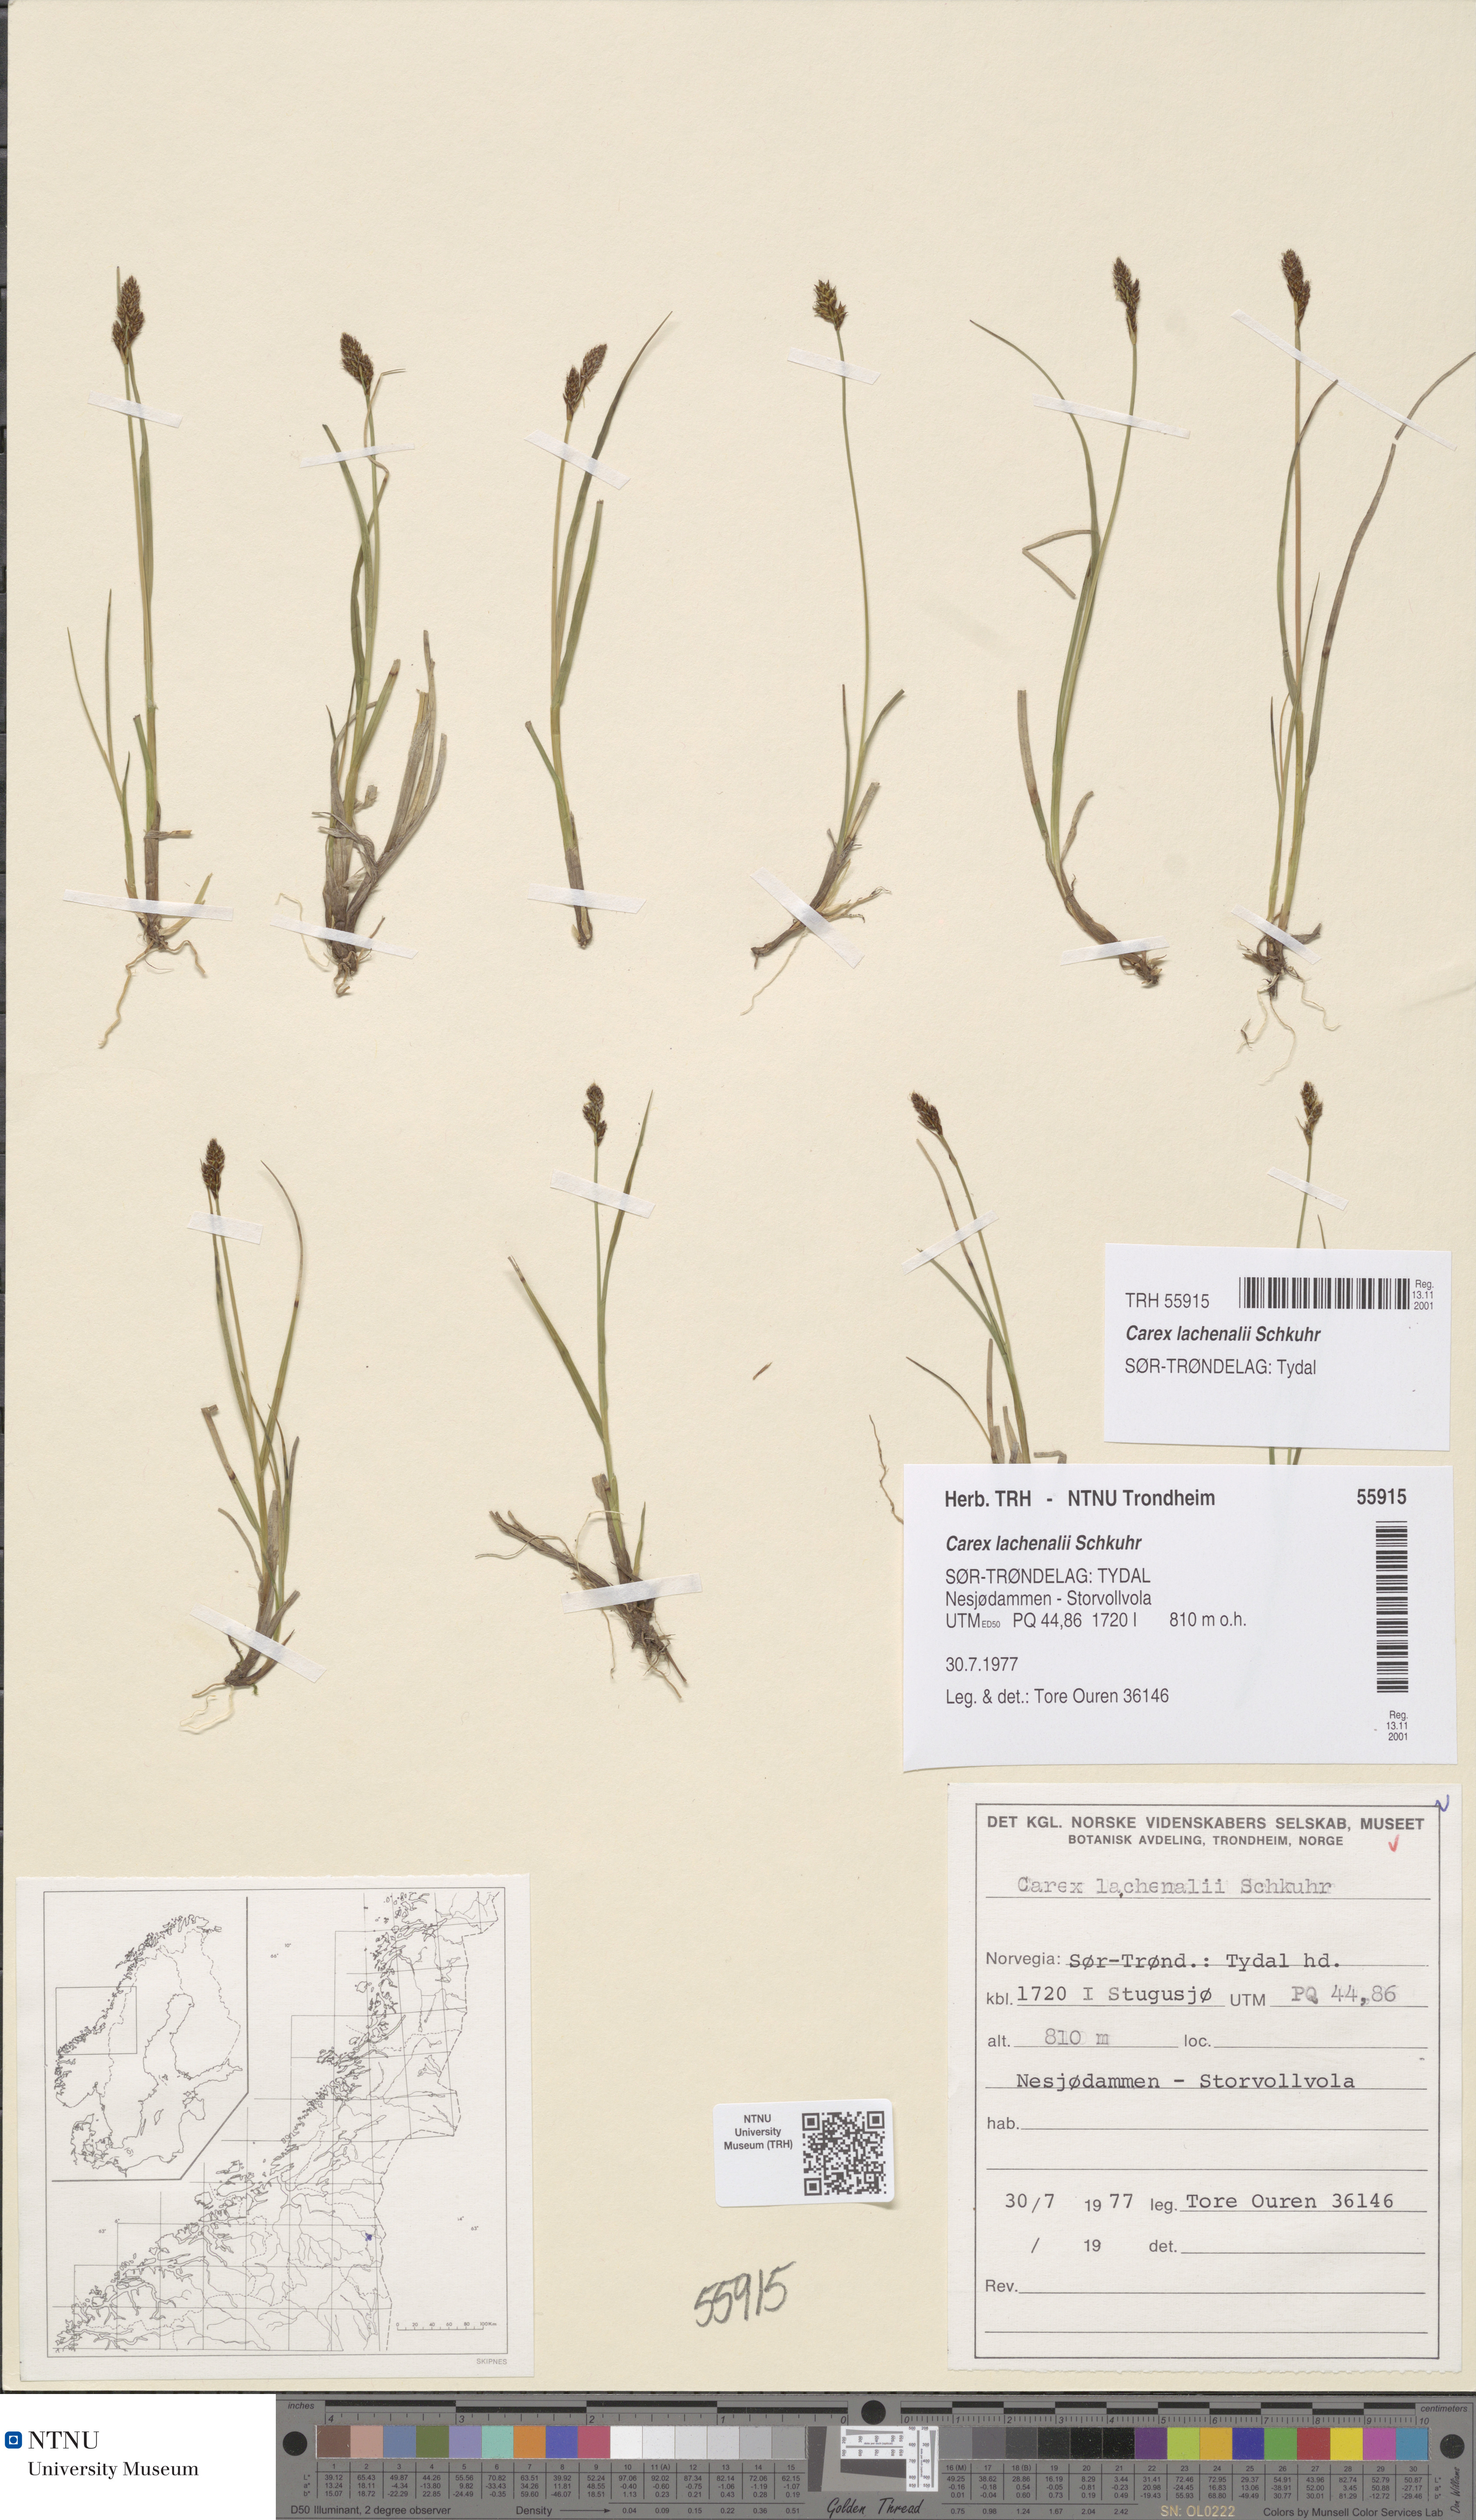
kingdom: Plantae
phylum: Tracheophyta
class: Liliopsida
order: Poales
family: Cyperaceae
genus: Carex
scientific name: Carex lachenalii
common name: Hare's-foot sedge
